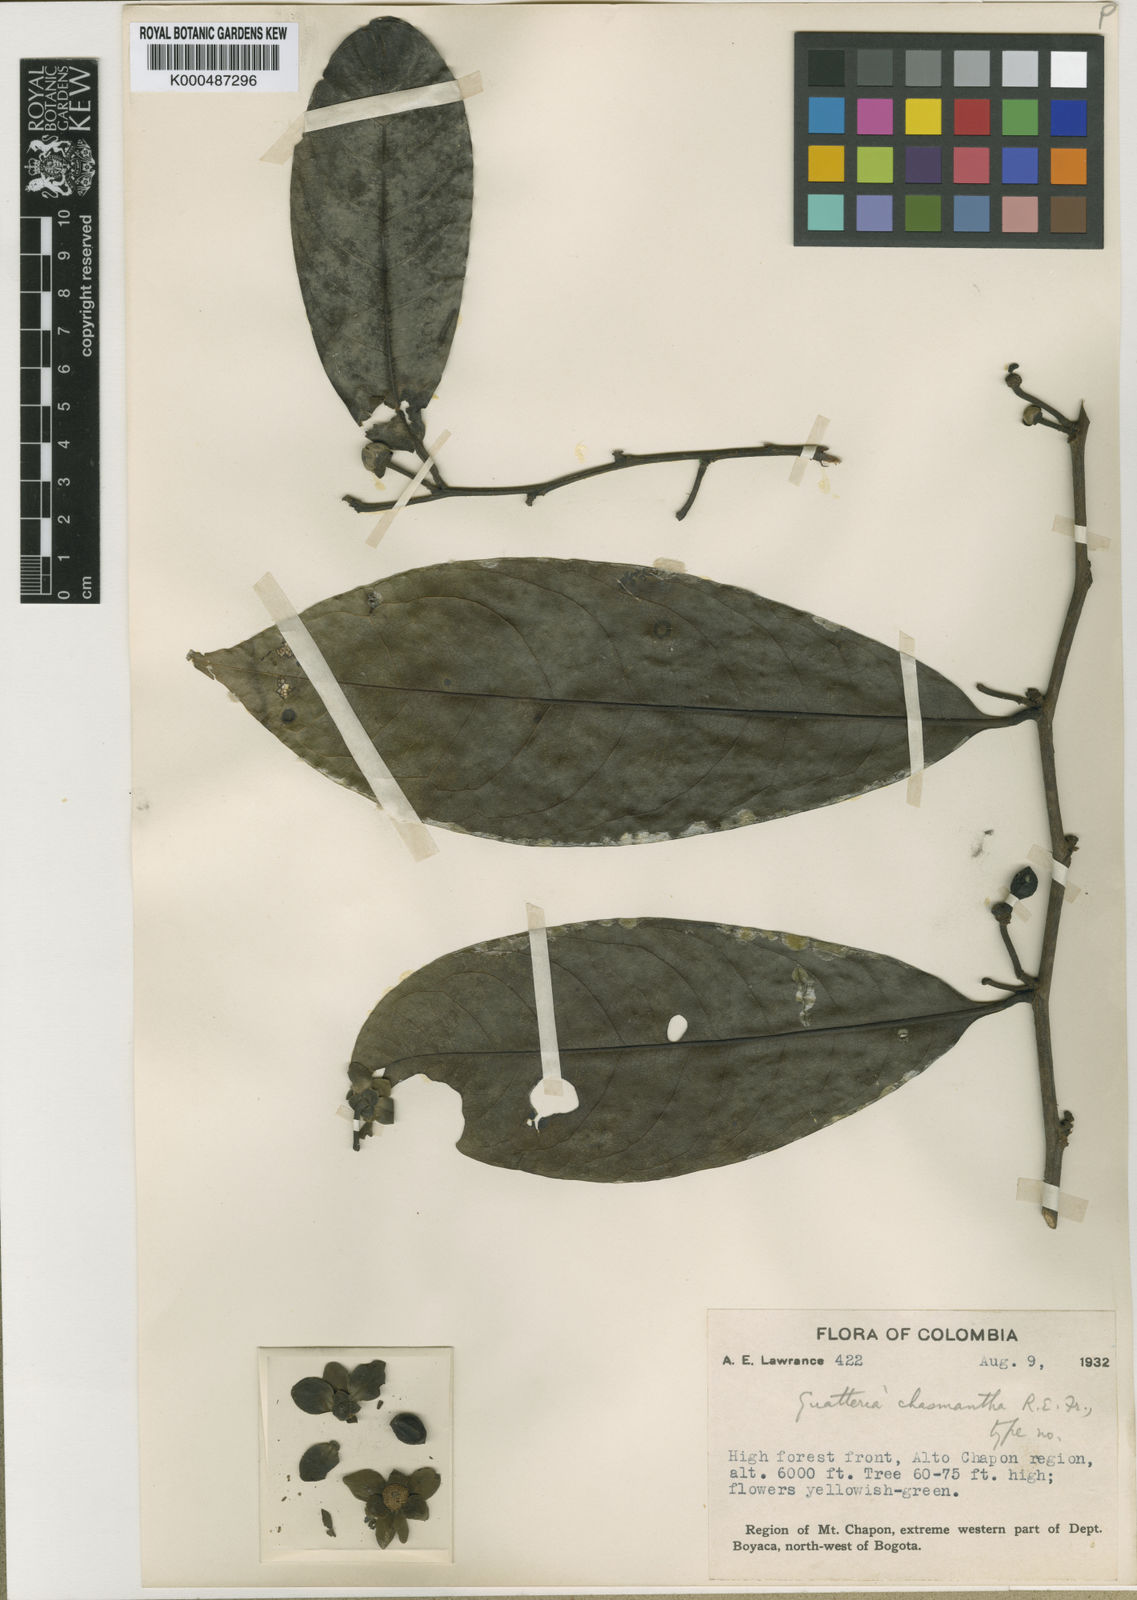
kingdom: Plantae
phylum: Tracheophyta
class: Magnoliopsida
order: Magnoliales
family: Annonaceae
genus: Guatteria
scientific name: Guatteria chasmantha
